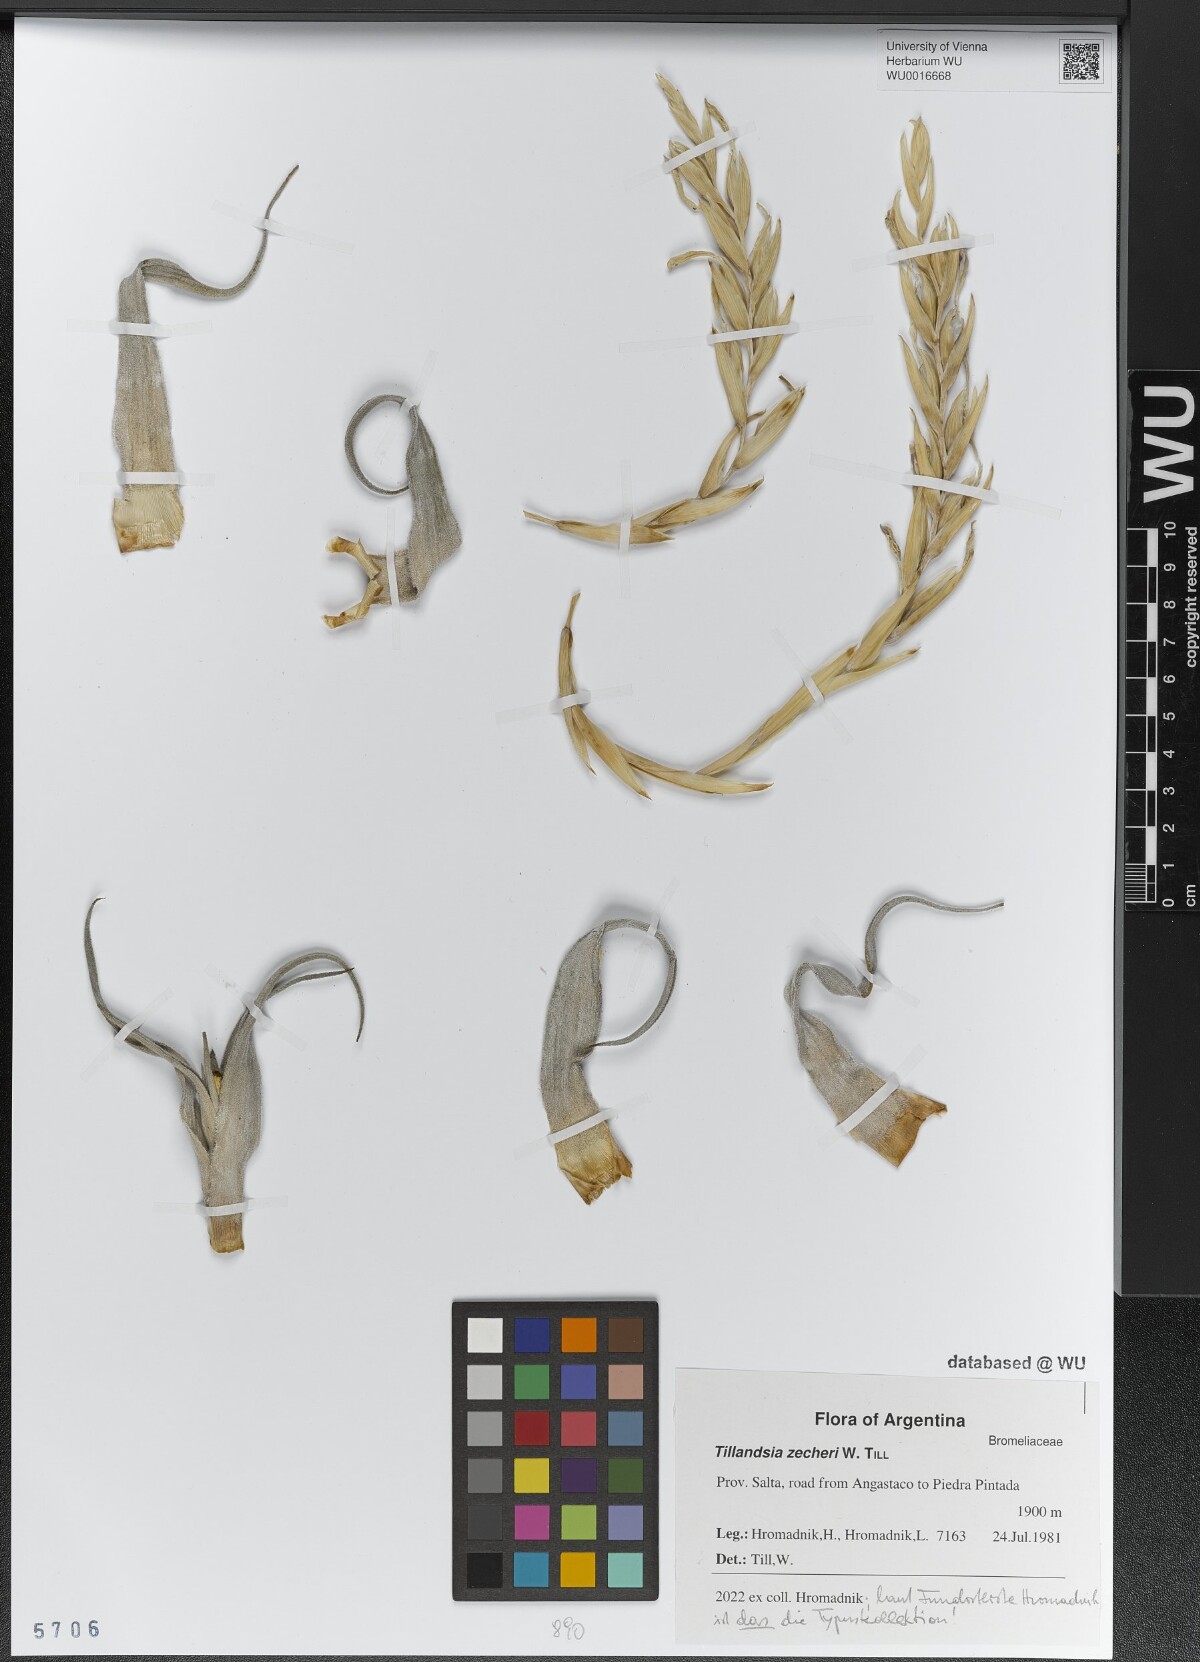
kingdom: Plantae
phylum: Tracheophyta
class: Liliopsida
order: Poales
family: Bromeliaceae
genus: Tillandsia
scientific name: Tillandsia zecheri
